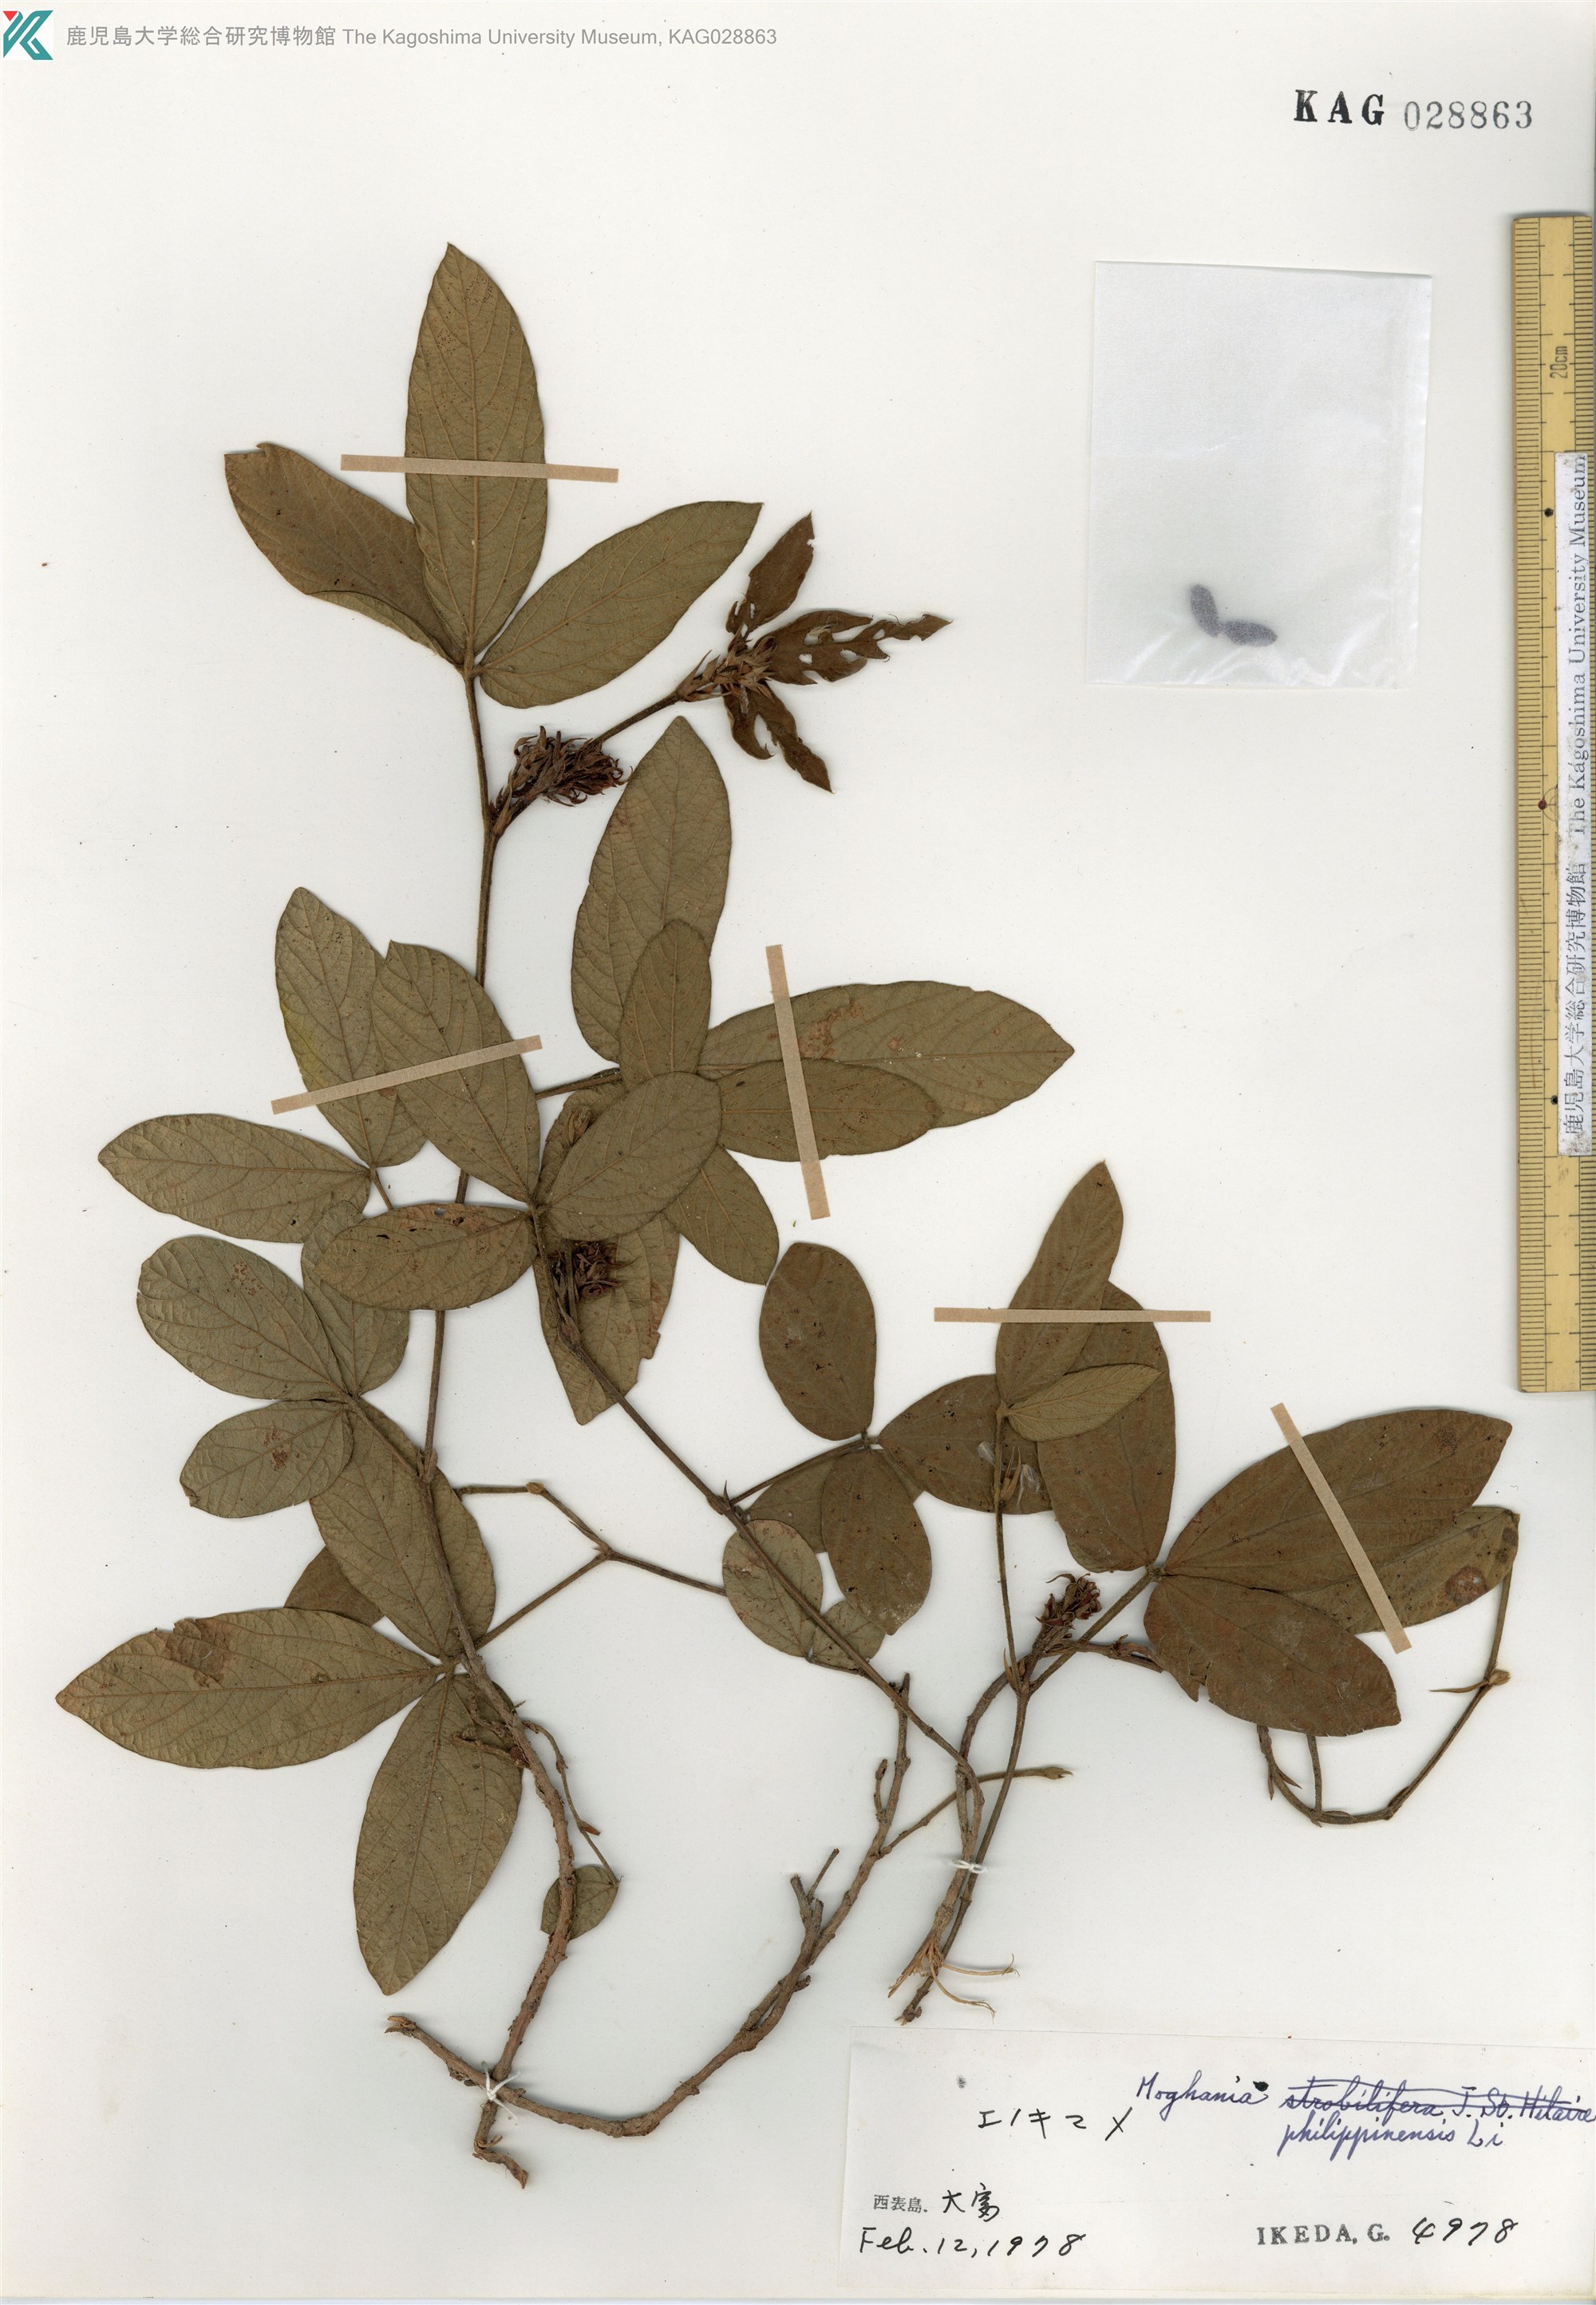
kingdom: Plantae
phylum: Tracheophyta
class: Magnoliopsida
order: Fabales
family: Fabaceae
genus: Flemingia
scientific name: Flemingia prostrata
